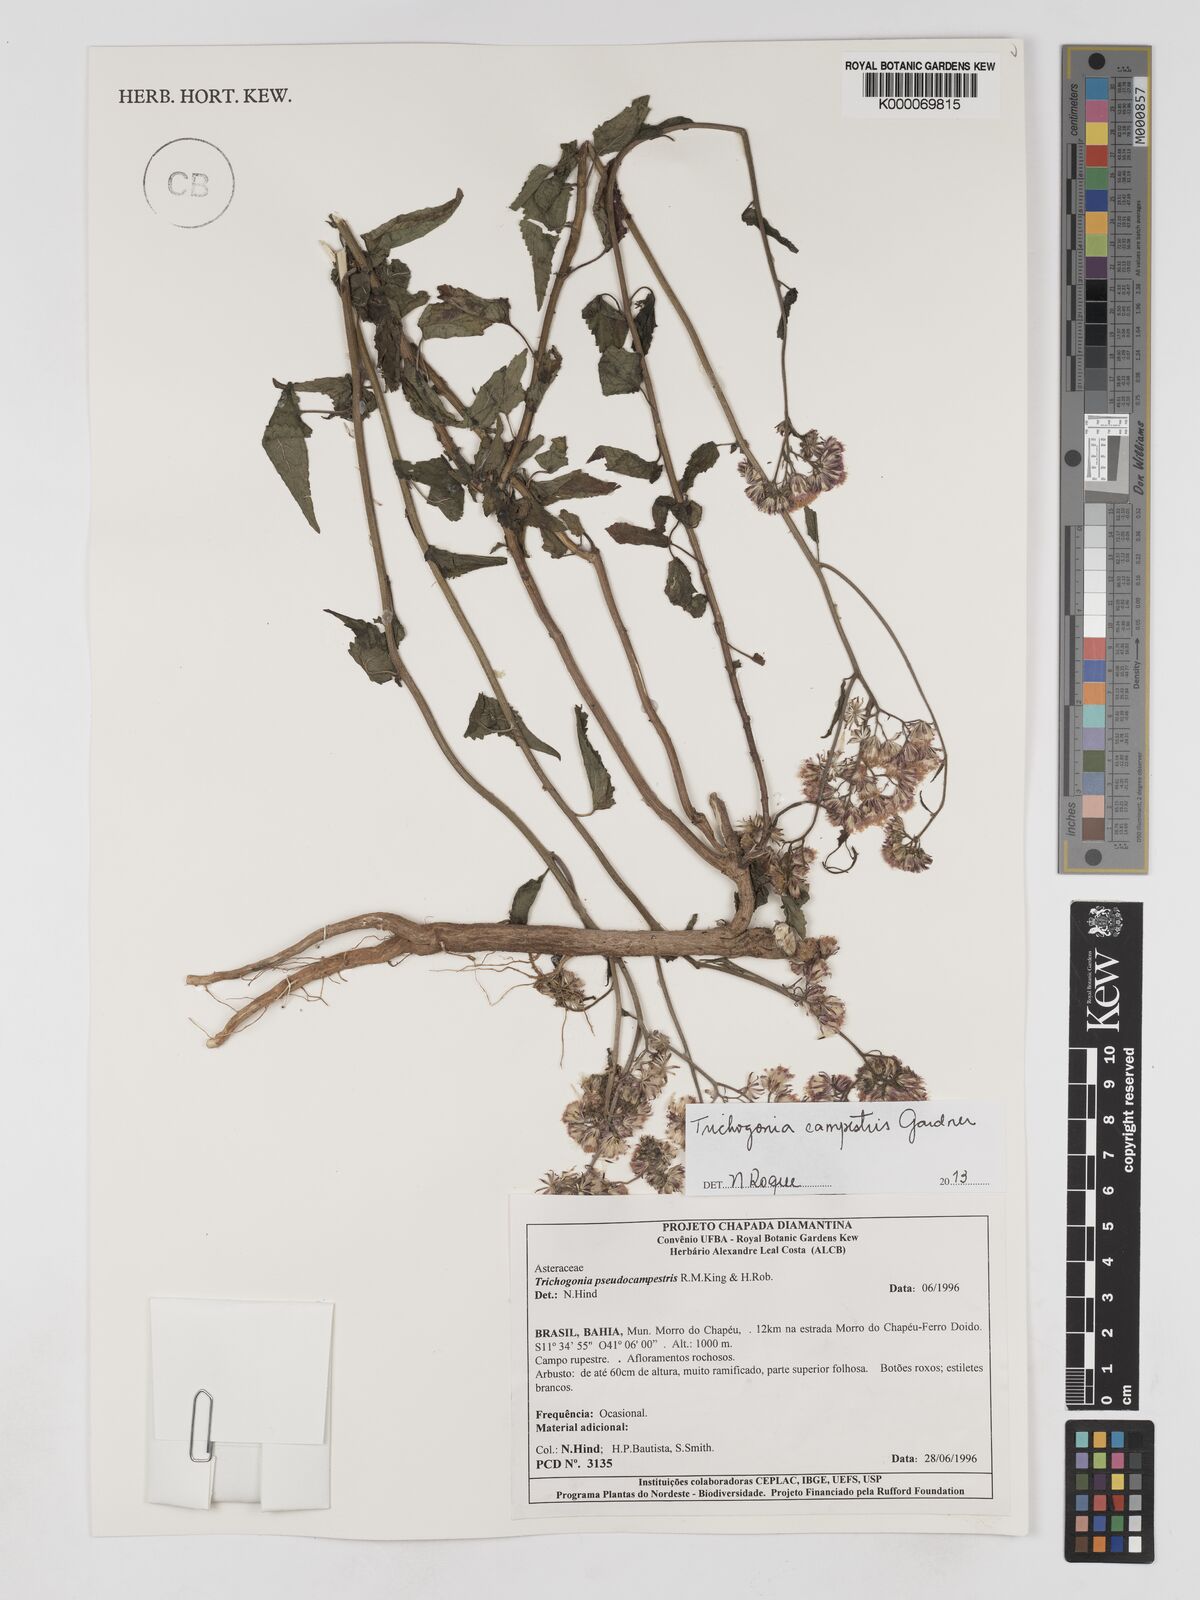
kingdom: Plantae
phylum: Tracheophyta
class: Magnoliopsida
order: Asterales
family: Asteraceae
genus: Trichogonia
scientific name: Trichogonia campestris
